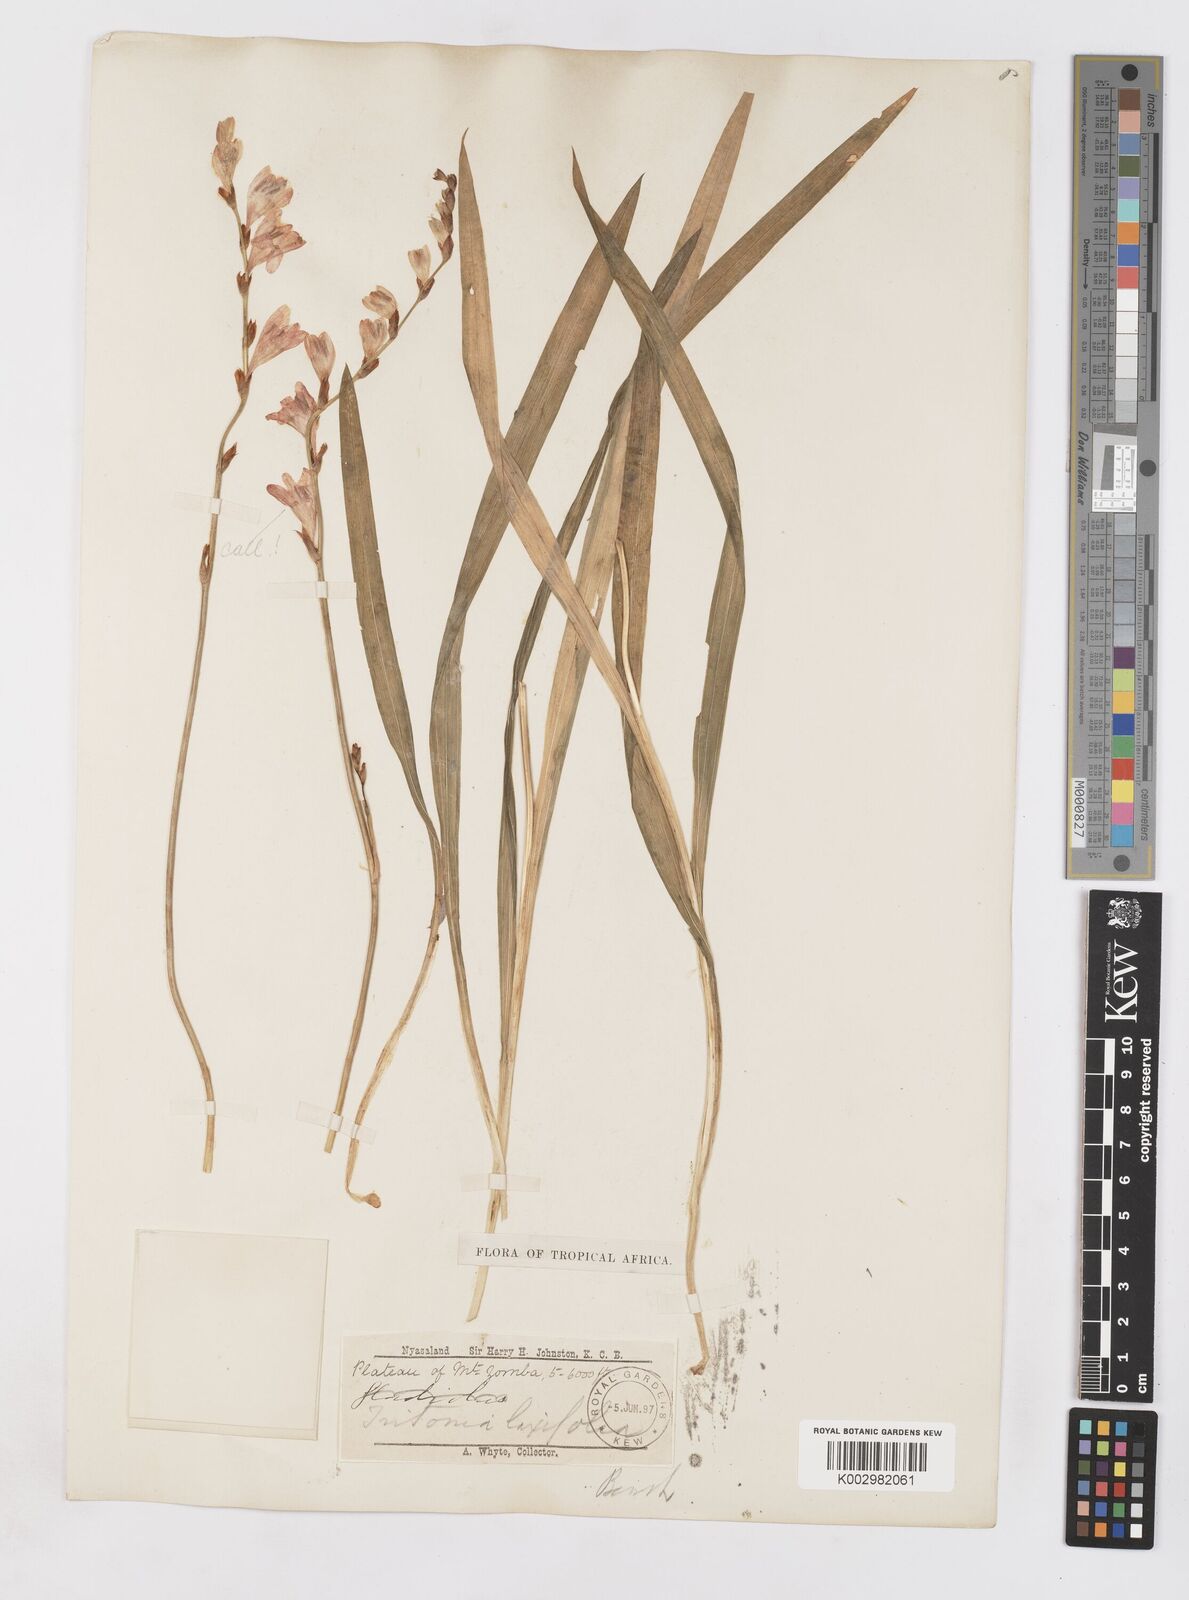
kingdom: Plantae
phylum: Tracheophyta
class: Liliopsida
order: Asparagales
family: Iridaceae
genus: Tritonia
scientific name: Tritonia laxifolia
